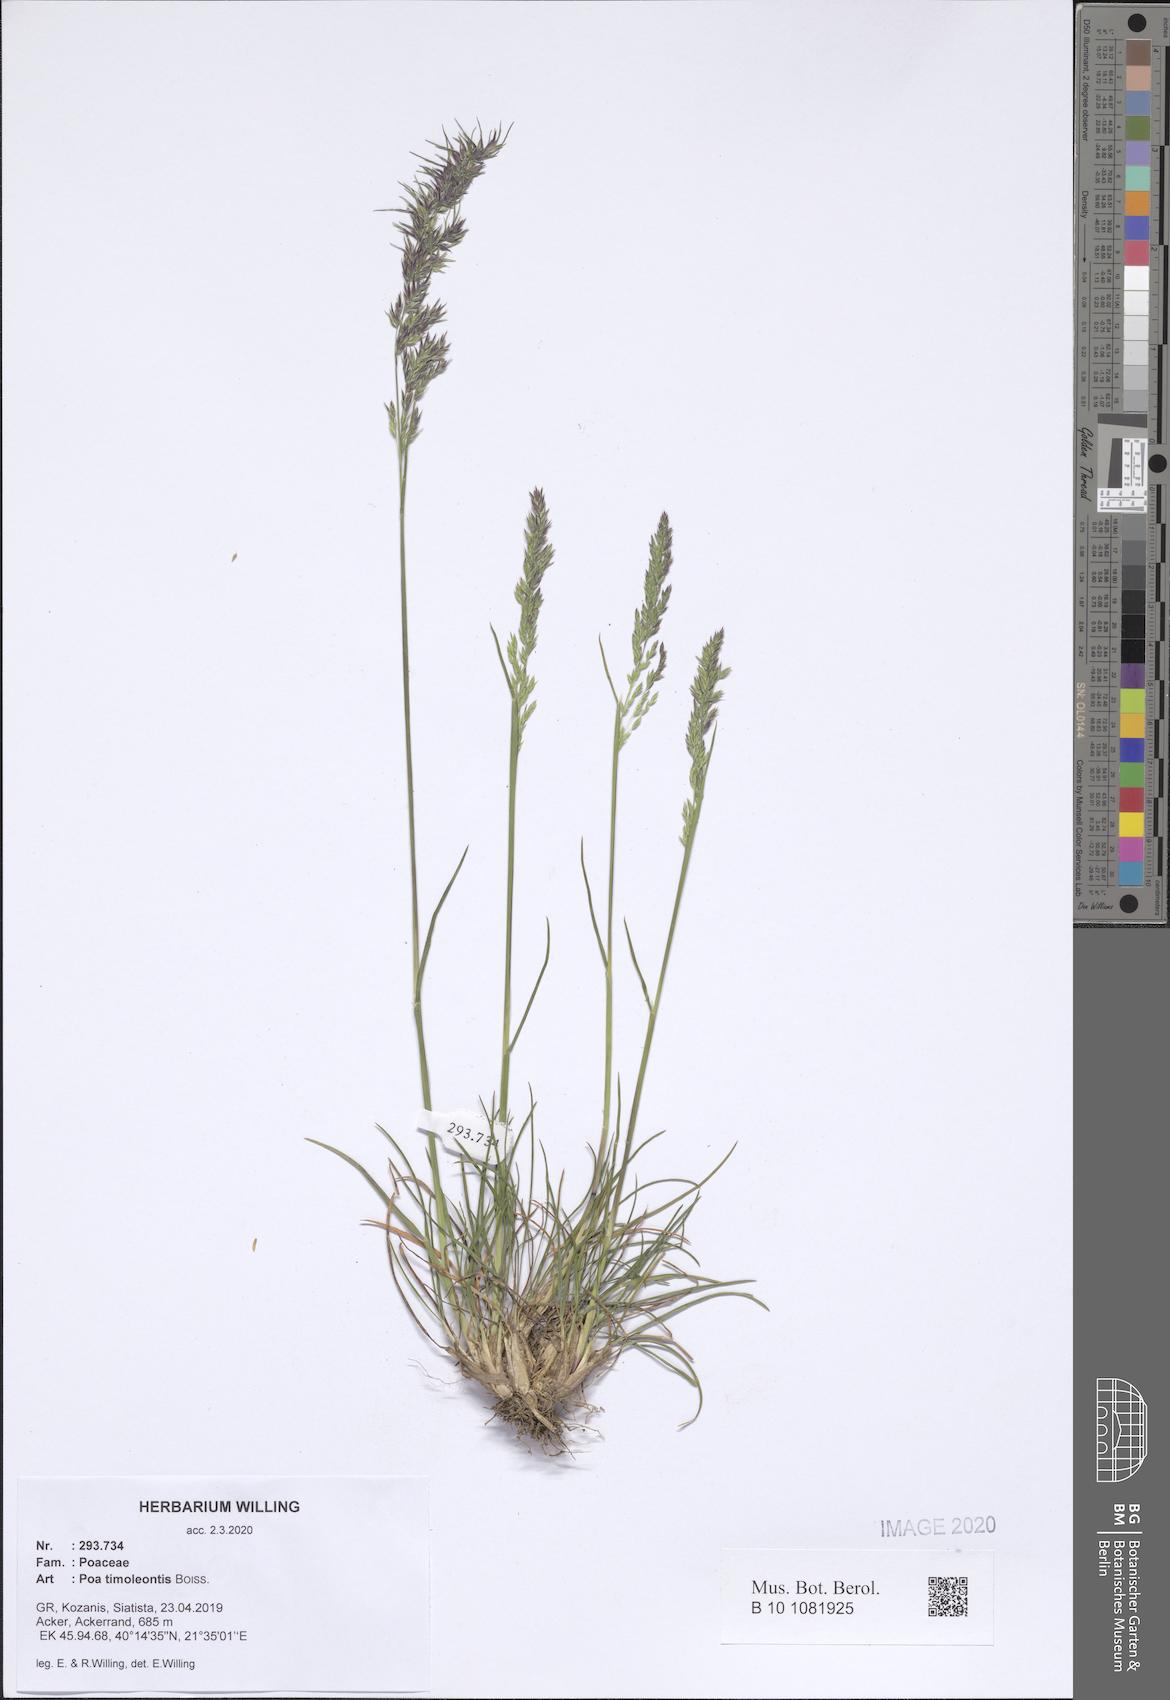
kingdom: Plantae
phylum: Tracheophyta
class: Liliopsida
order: Poales
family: Poaceae
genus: Poa
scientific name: Poa timoleontis
